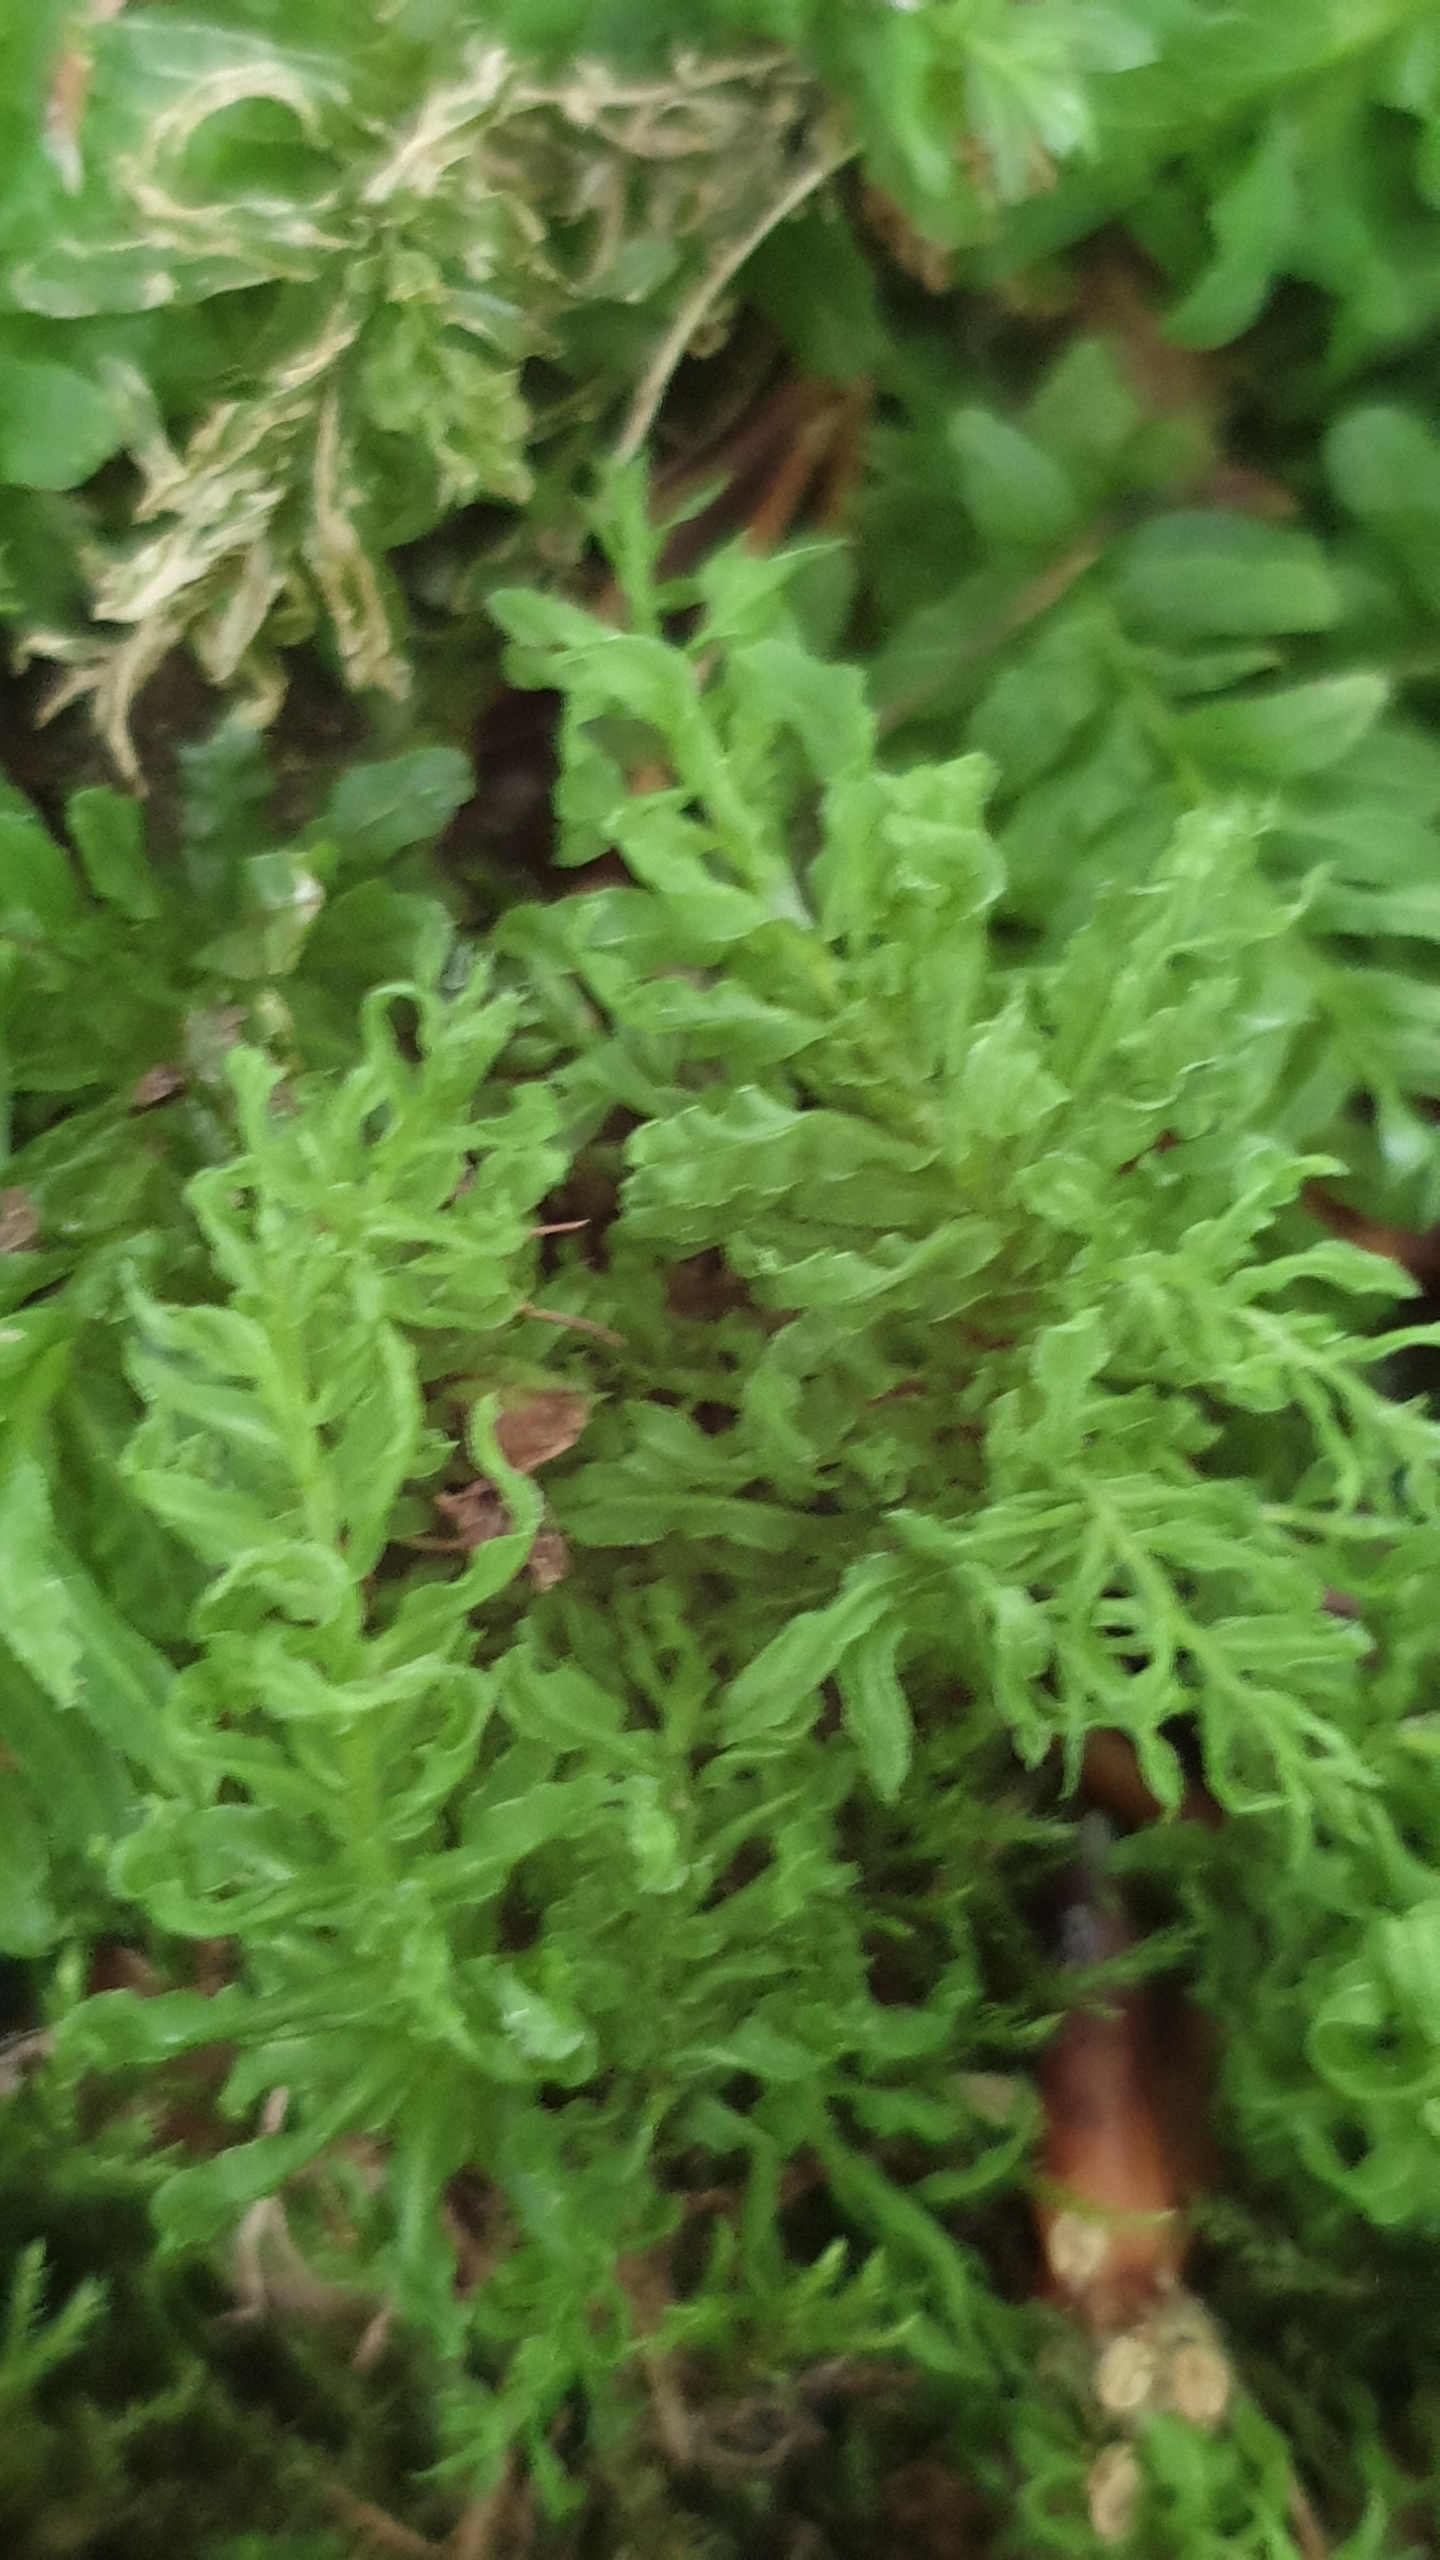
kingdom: Plantae
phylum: Bryophyta
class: Bryopsida
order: Bryales
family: Mniaceae
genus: Plagiomnium
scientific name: Plagiomnium undulatum
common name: Bølget krybstjerne
